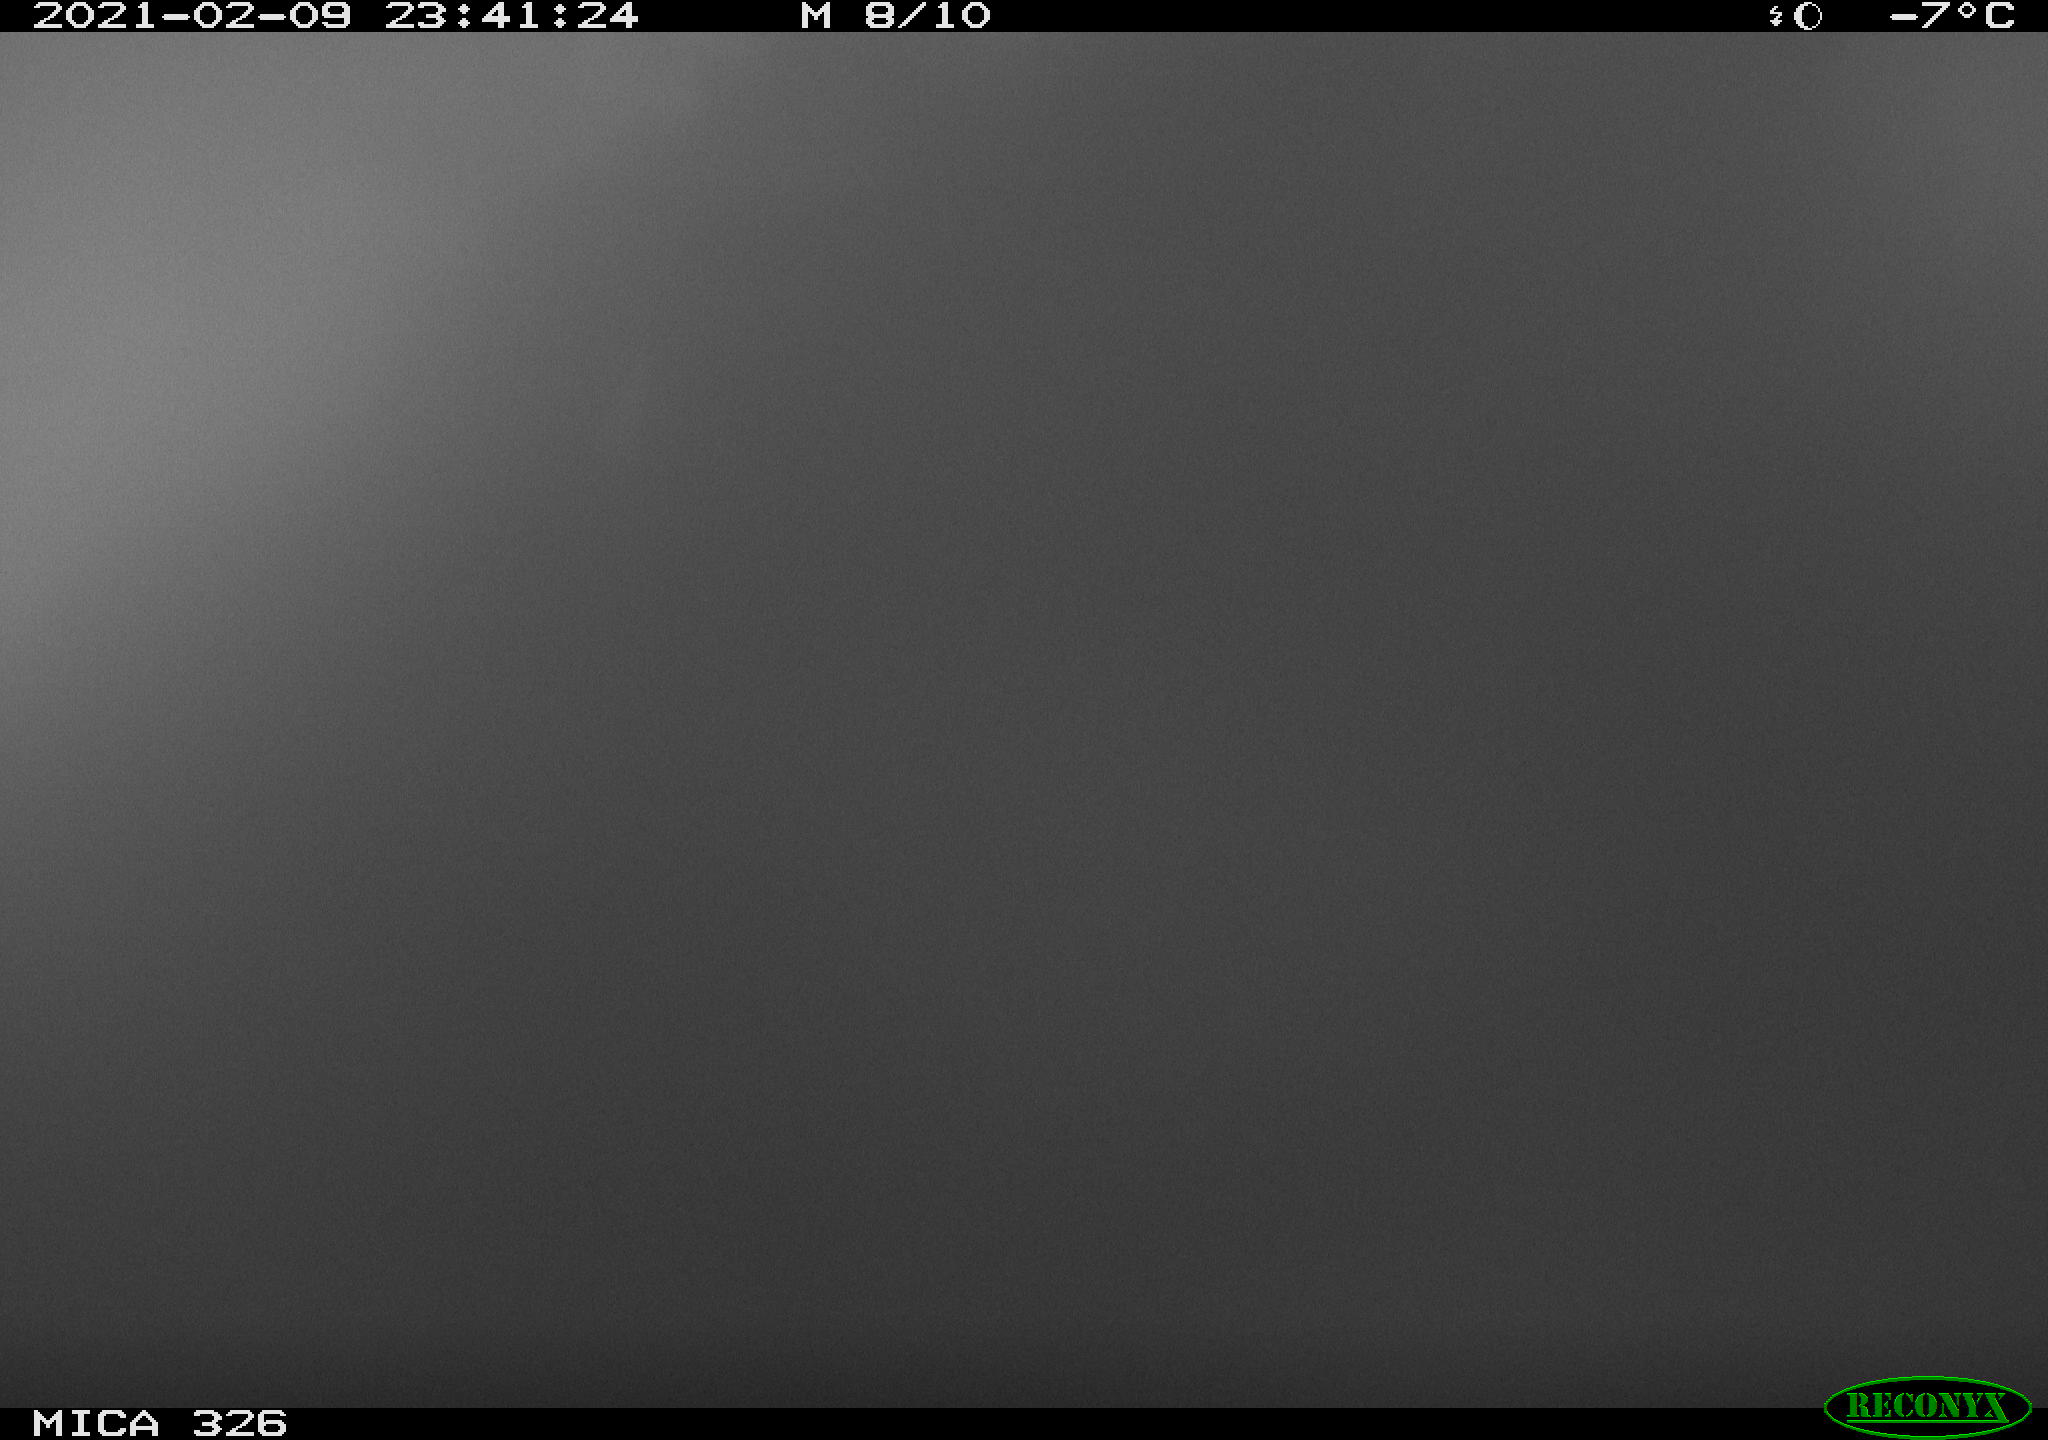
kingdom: Animalia
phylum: Chordata
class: Mammalia
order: Carnivora
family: Mustelidae
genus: Lutra
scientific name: Lutra lutra
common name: European otter
